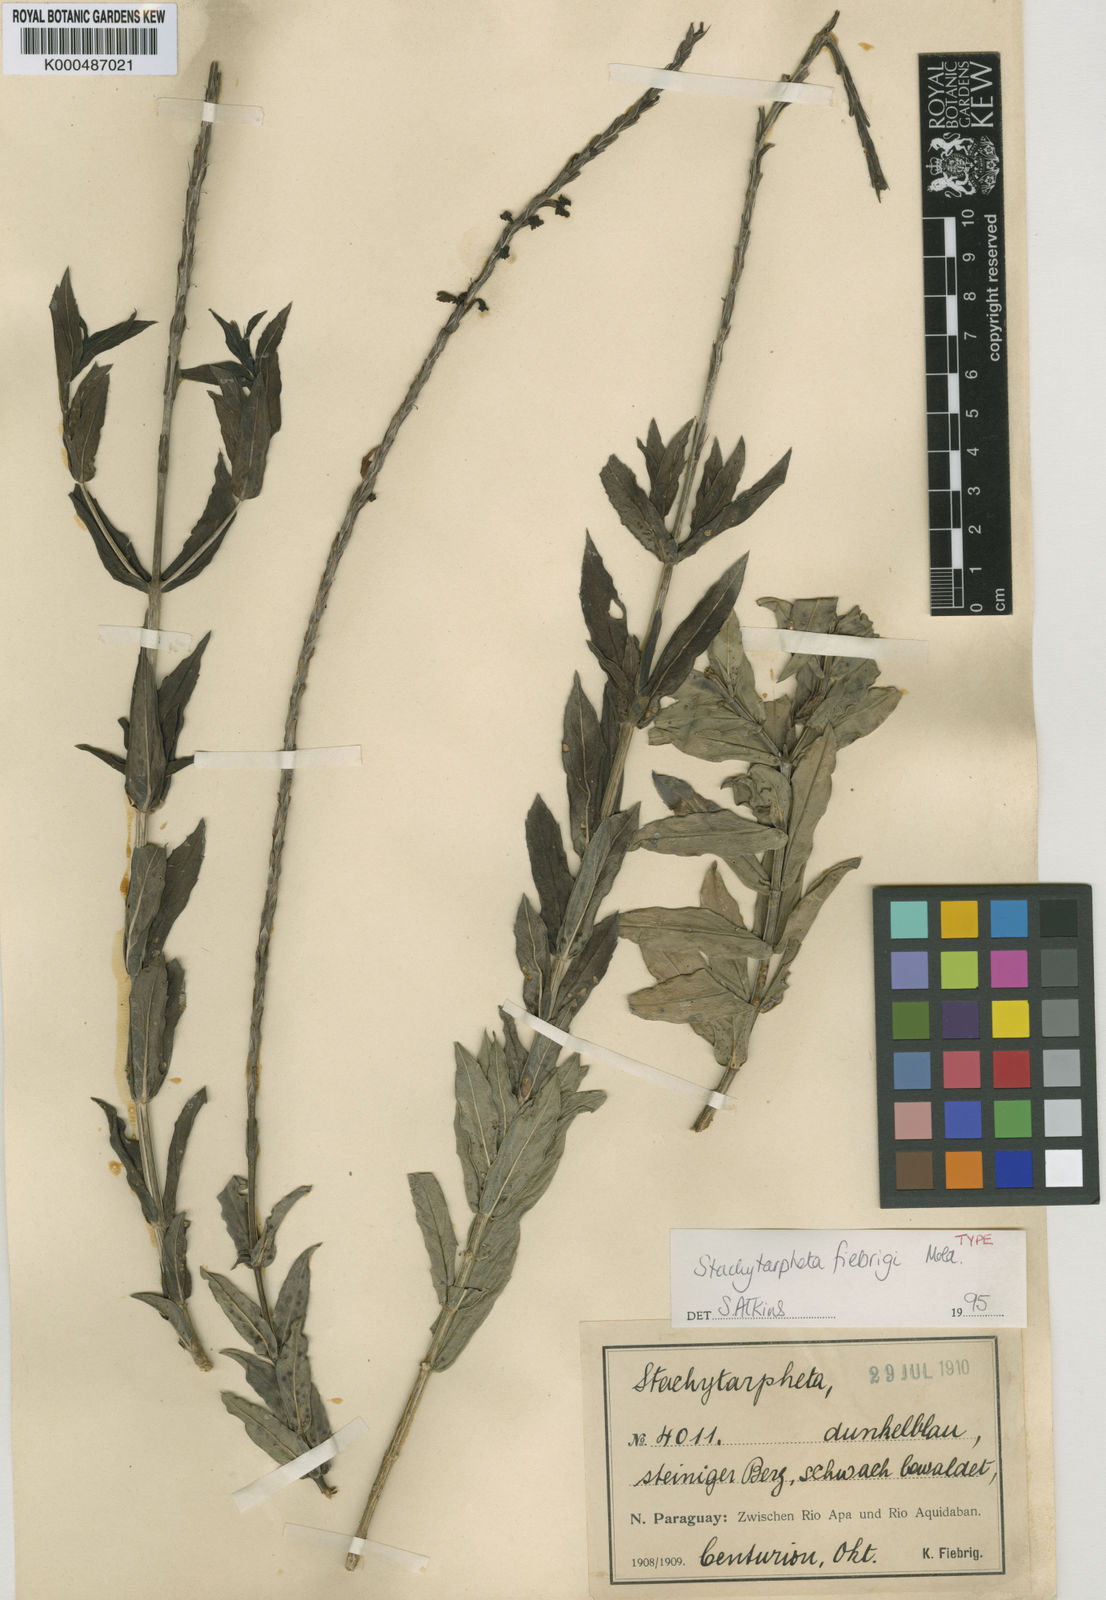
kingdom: Plantae
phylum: Tracheophyta
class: Magnoliopsida
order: Lamiales
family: Verbenaceae
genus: Citharexylum
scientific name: Citharexylum amabile
